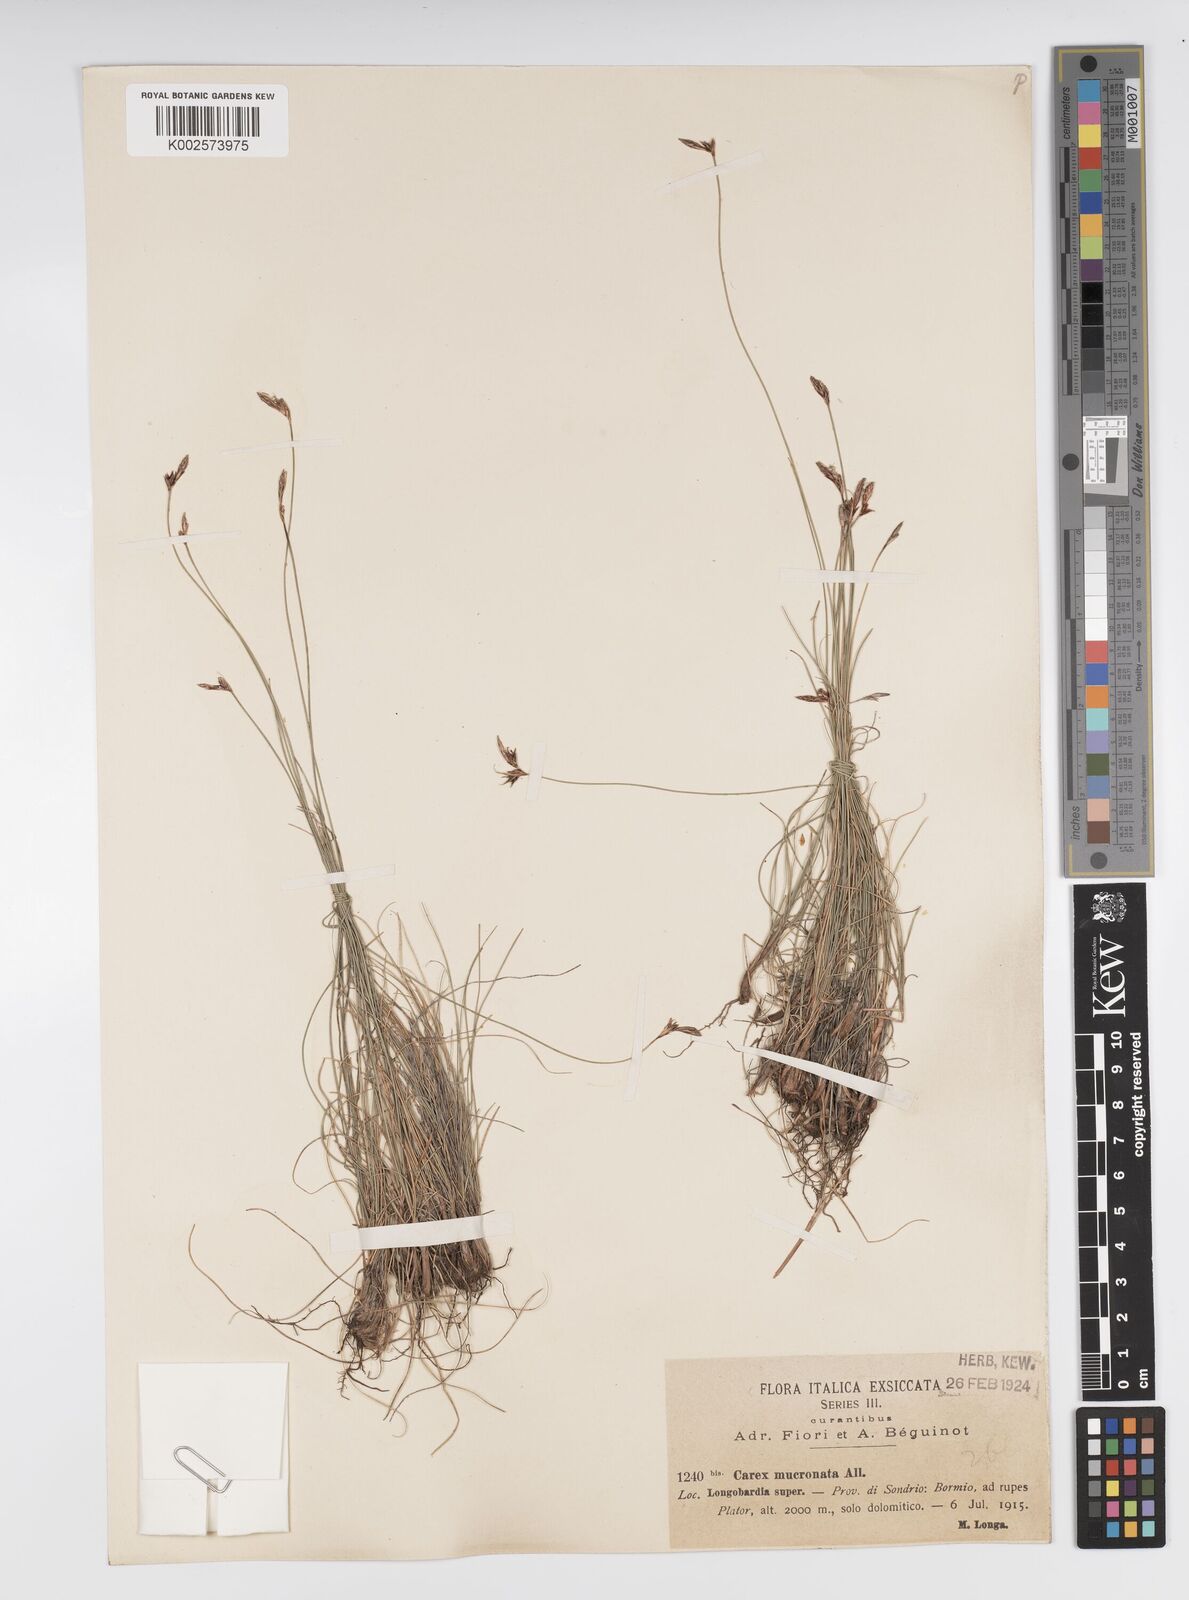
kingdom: Plantae
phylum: Tracheophyta
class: Liliopsida
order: Poales
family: Cyperaceae
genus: Carex
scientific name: Carex mucronata
